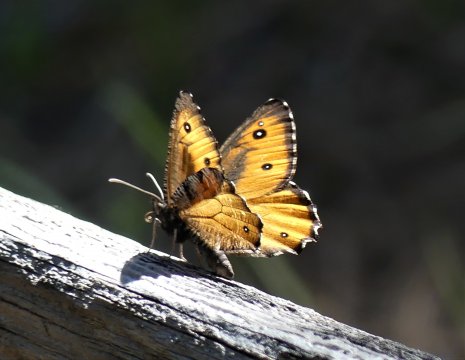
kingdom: Animalia
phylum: Arthropoda
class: Insecta
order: Lepidoptera
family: Nymphalidae
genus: Oeneis
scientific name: Oeneis nevadensis
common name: Great Arctic
